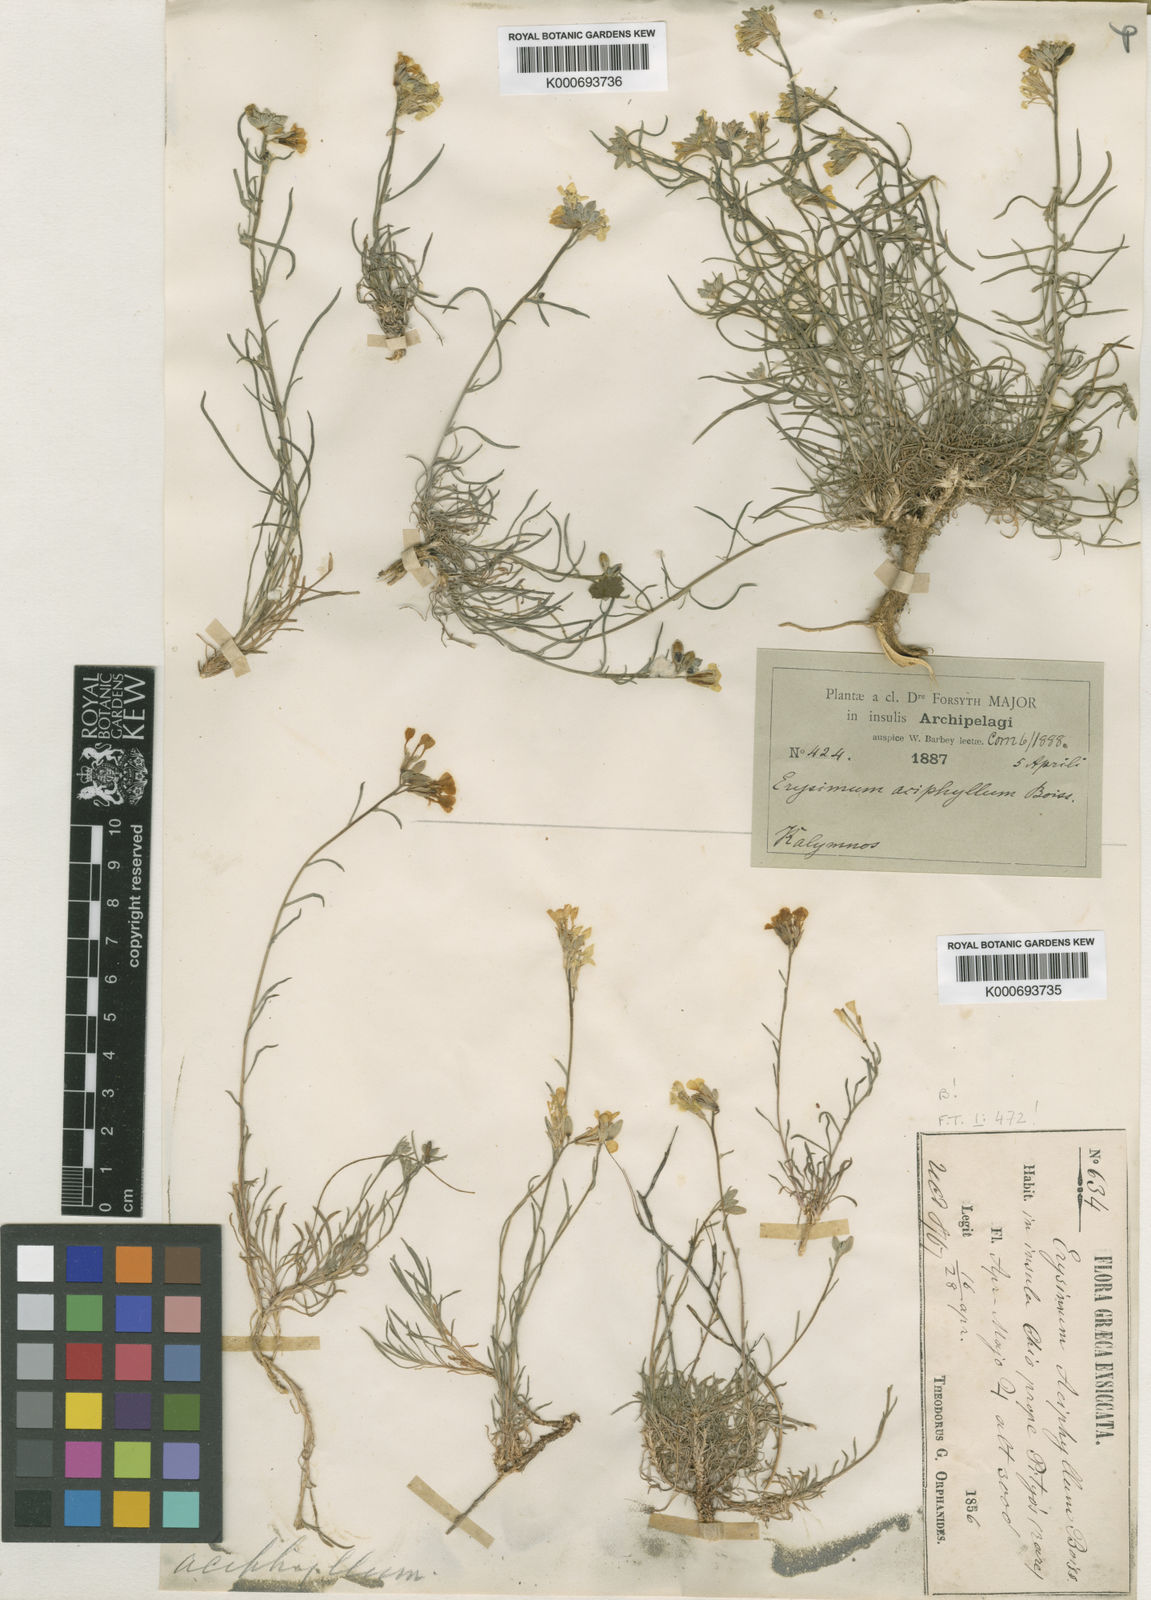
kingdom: Plantae
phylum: Tracheophyta
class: Magnoliopsida
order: Brassicales
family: Brassicaceae
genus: Erysimum
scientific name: Erysimum pusillum
